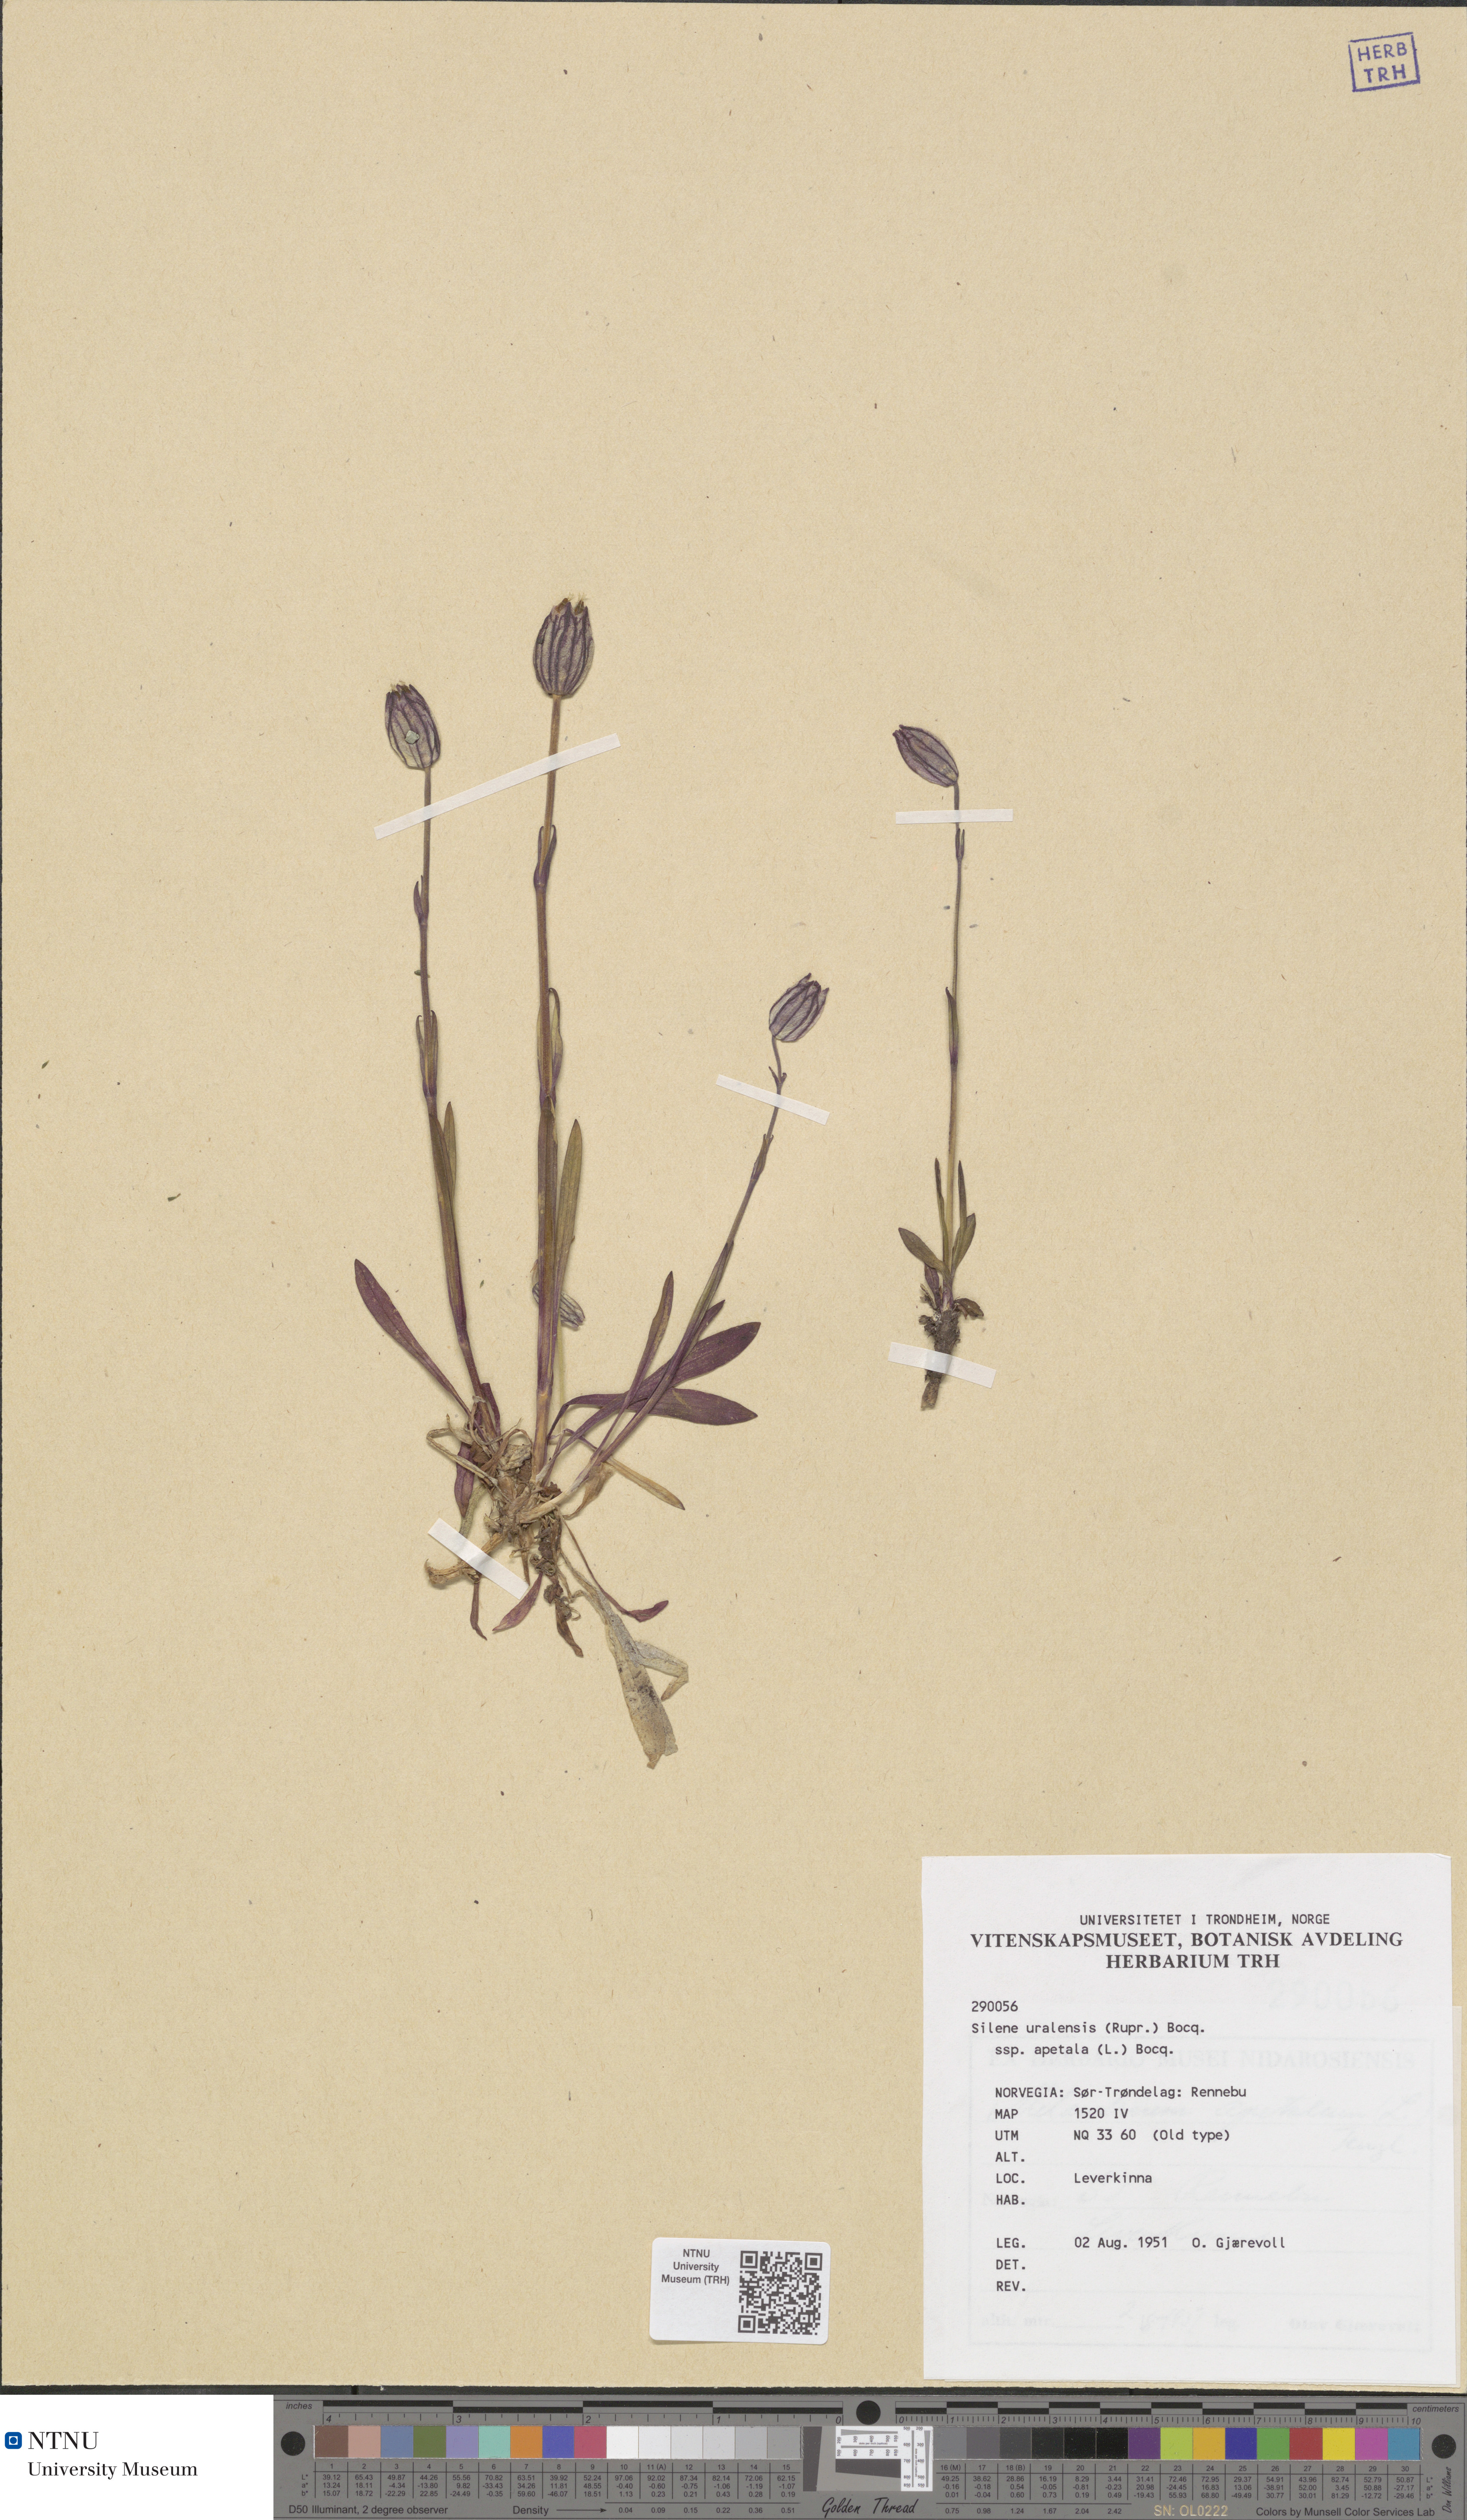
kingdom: Plantae
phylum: Tracheophyta
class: Magnoliopsida
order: Caryophyllales
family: Caryophyllaceae
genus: Silene
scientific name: Silene wahlbergella
